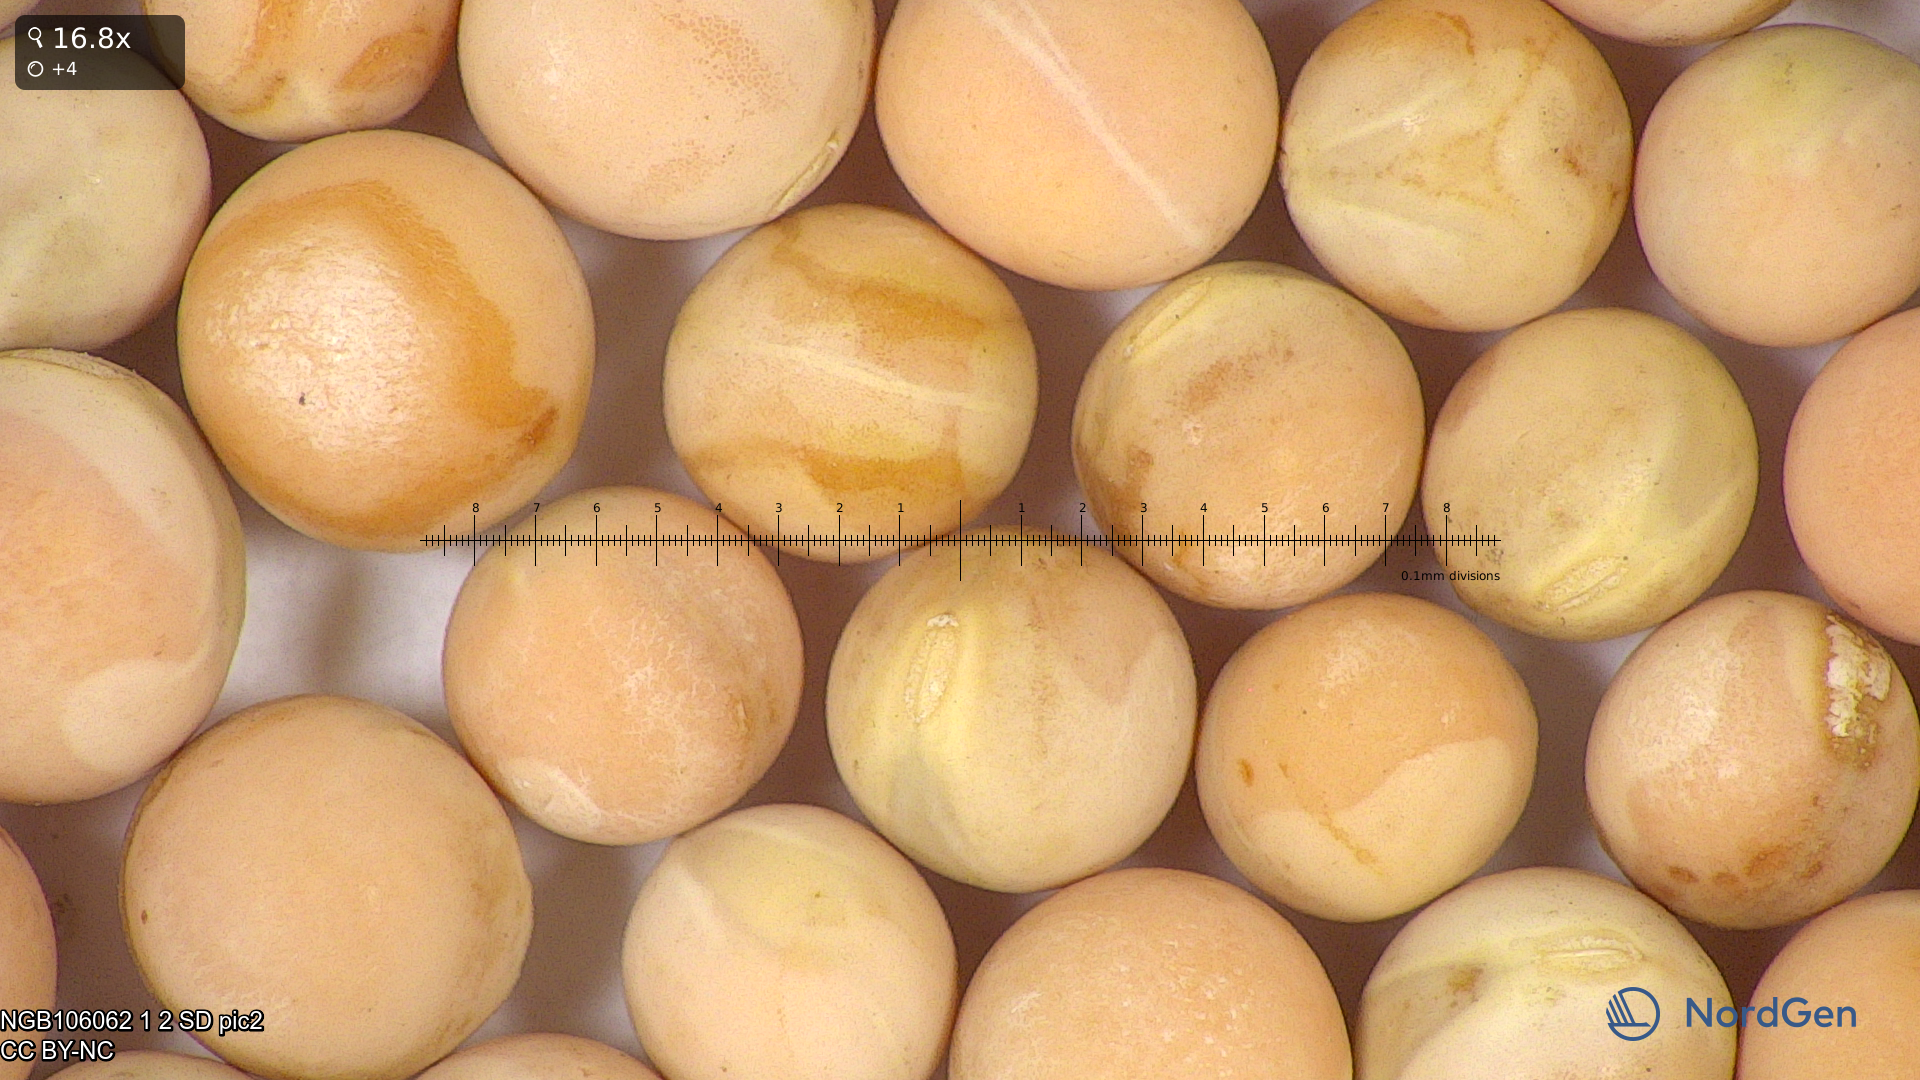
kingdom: Plantae
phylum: Tracheophyta
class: Magnoliopsida
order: Fabales
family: Fabaceae
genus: Lathyrus
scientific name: Lathyrus oleraceus
